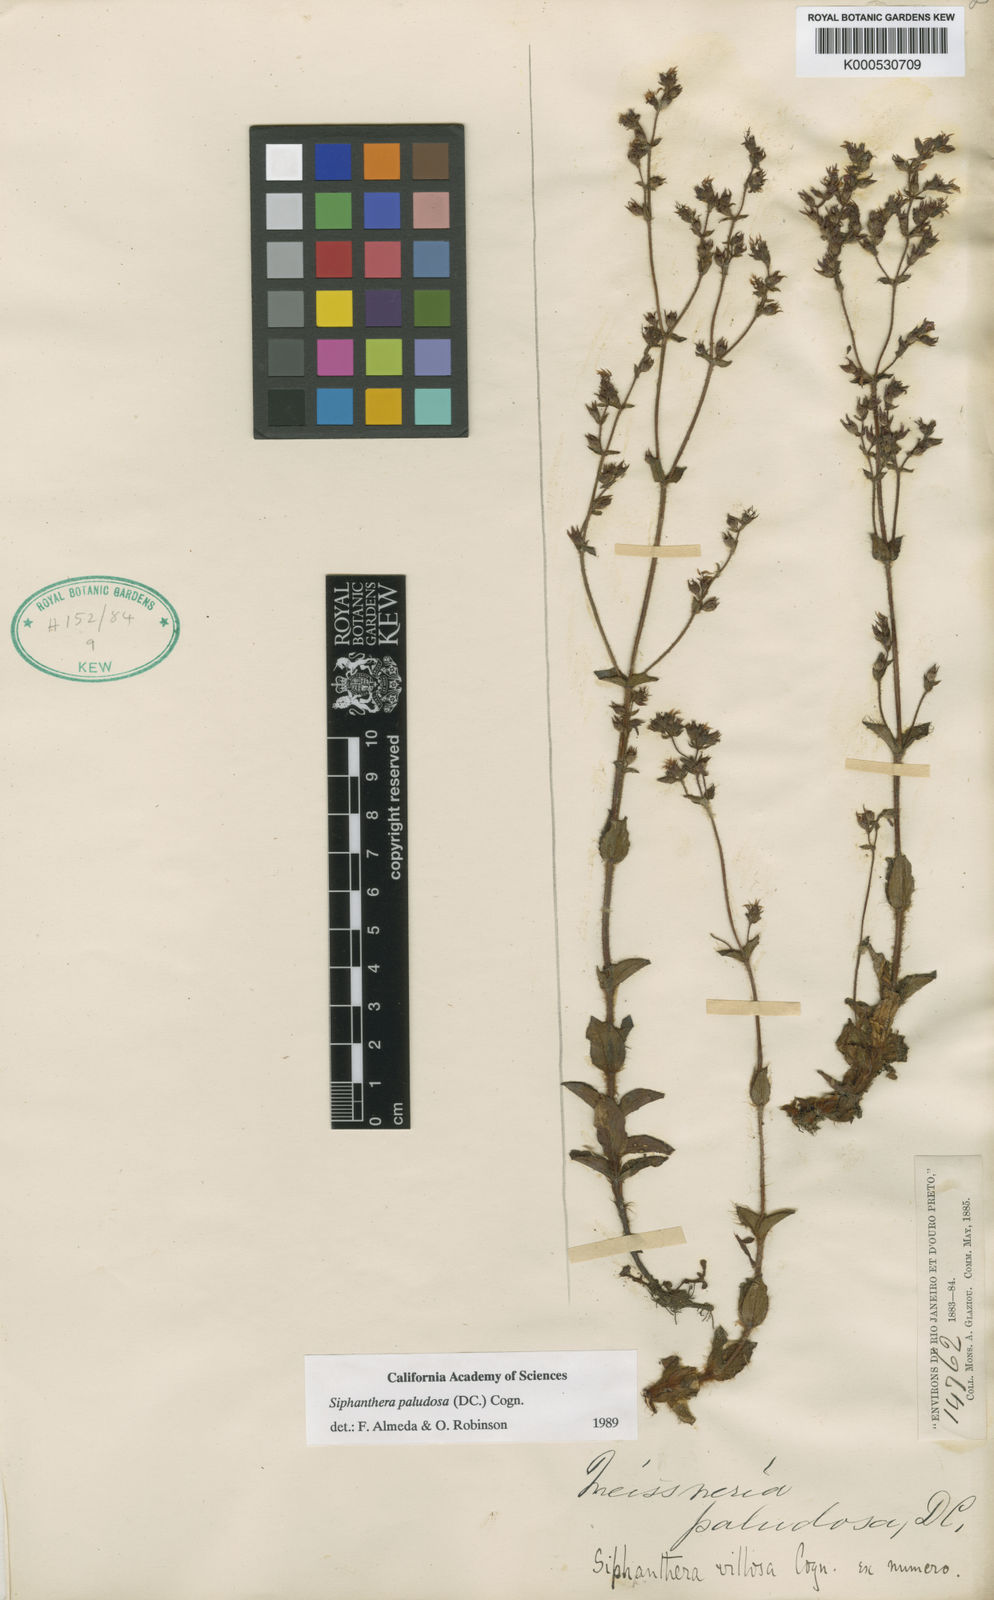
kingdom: Plantae
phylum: Tracheophyta
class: Magnoliopsida
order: Myrtales
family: Melastomataceae
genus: Siphanthera
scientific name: Siphanthera paludosa
